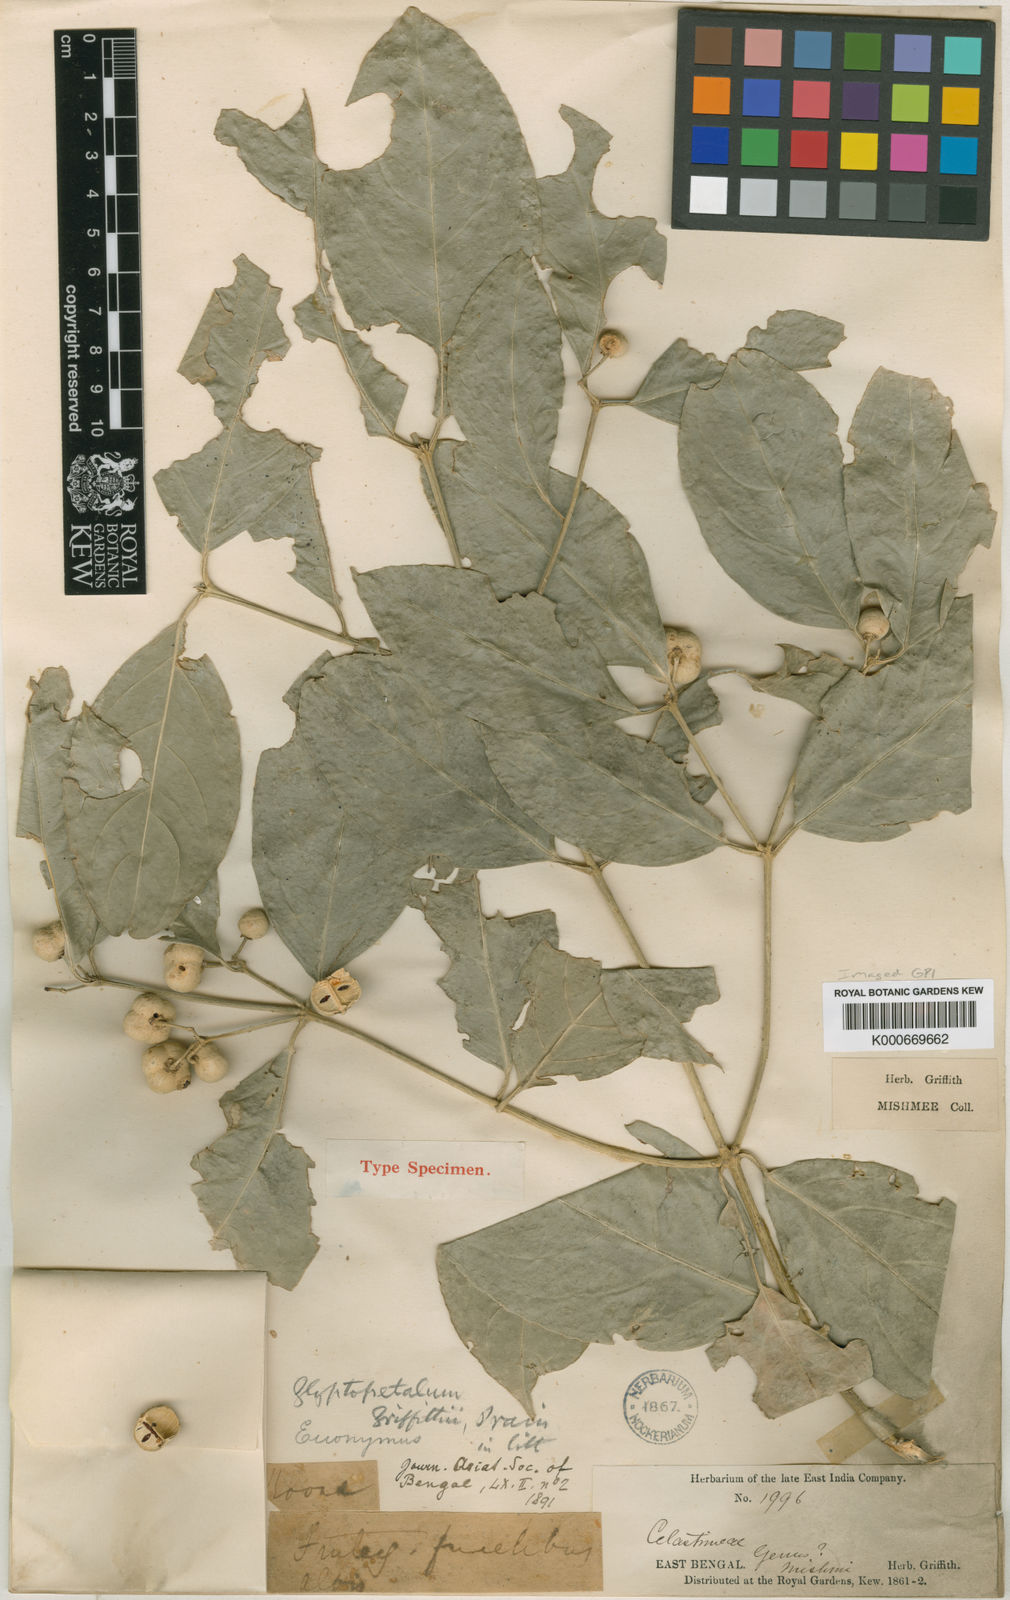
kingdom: Plantae
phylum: Tracheophyta
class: Magnoliopsida
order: Celastrales
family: Celastraceae
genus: Euonymus
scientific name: Euonymus calocarpus
